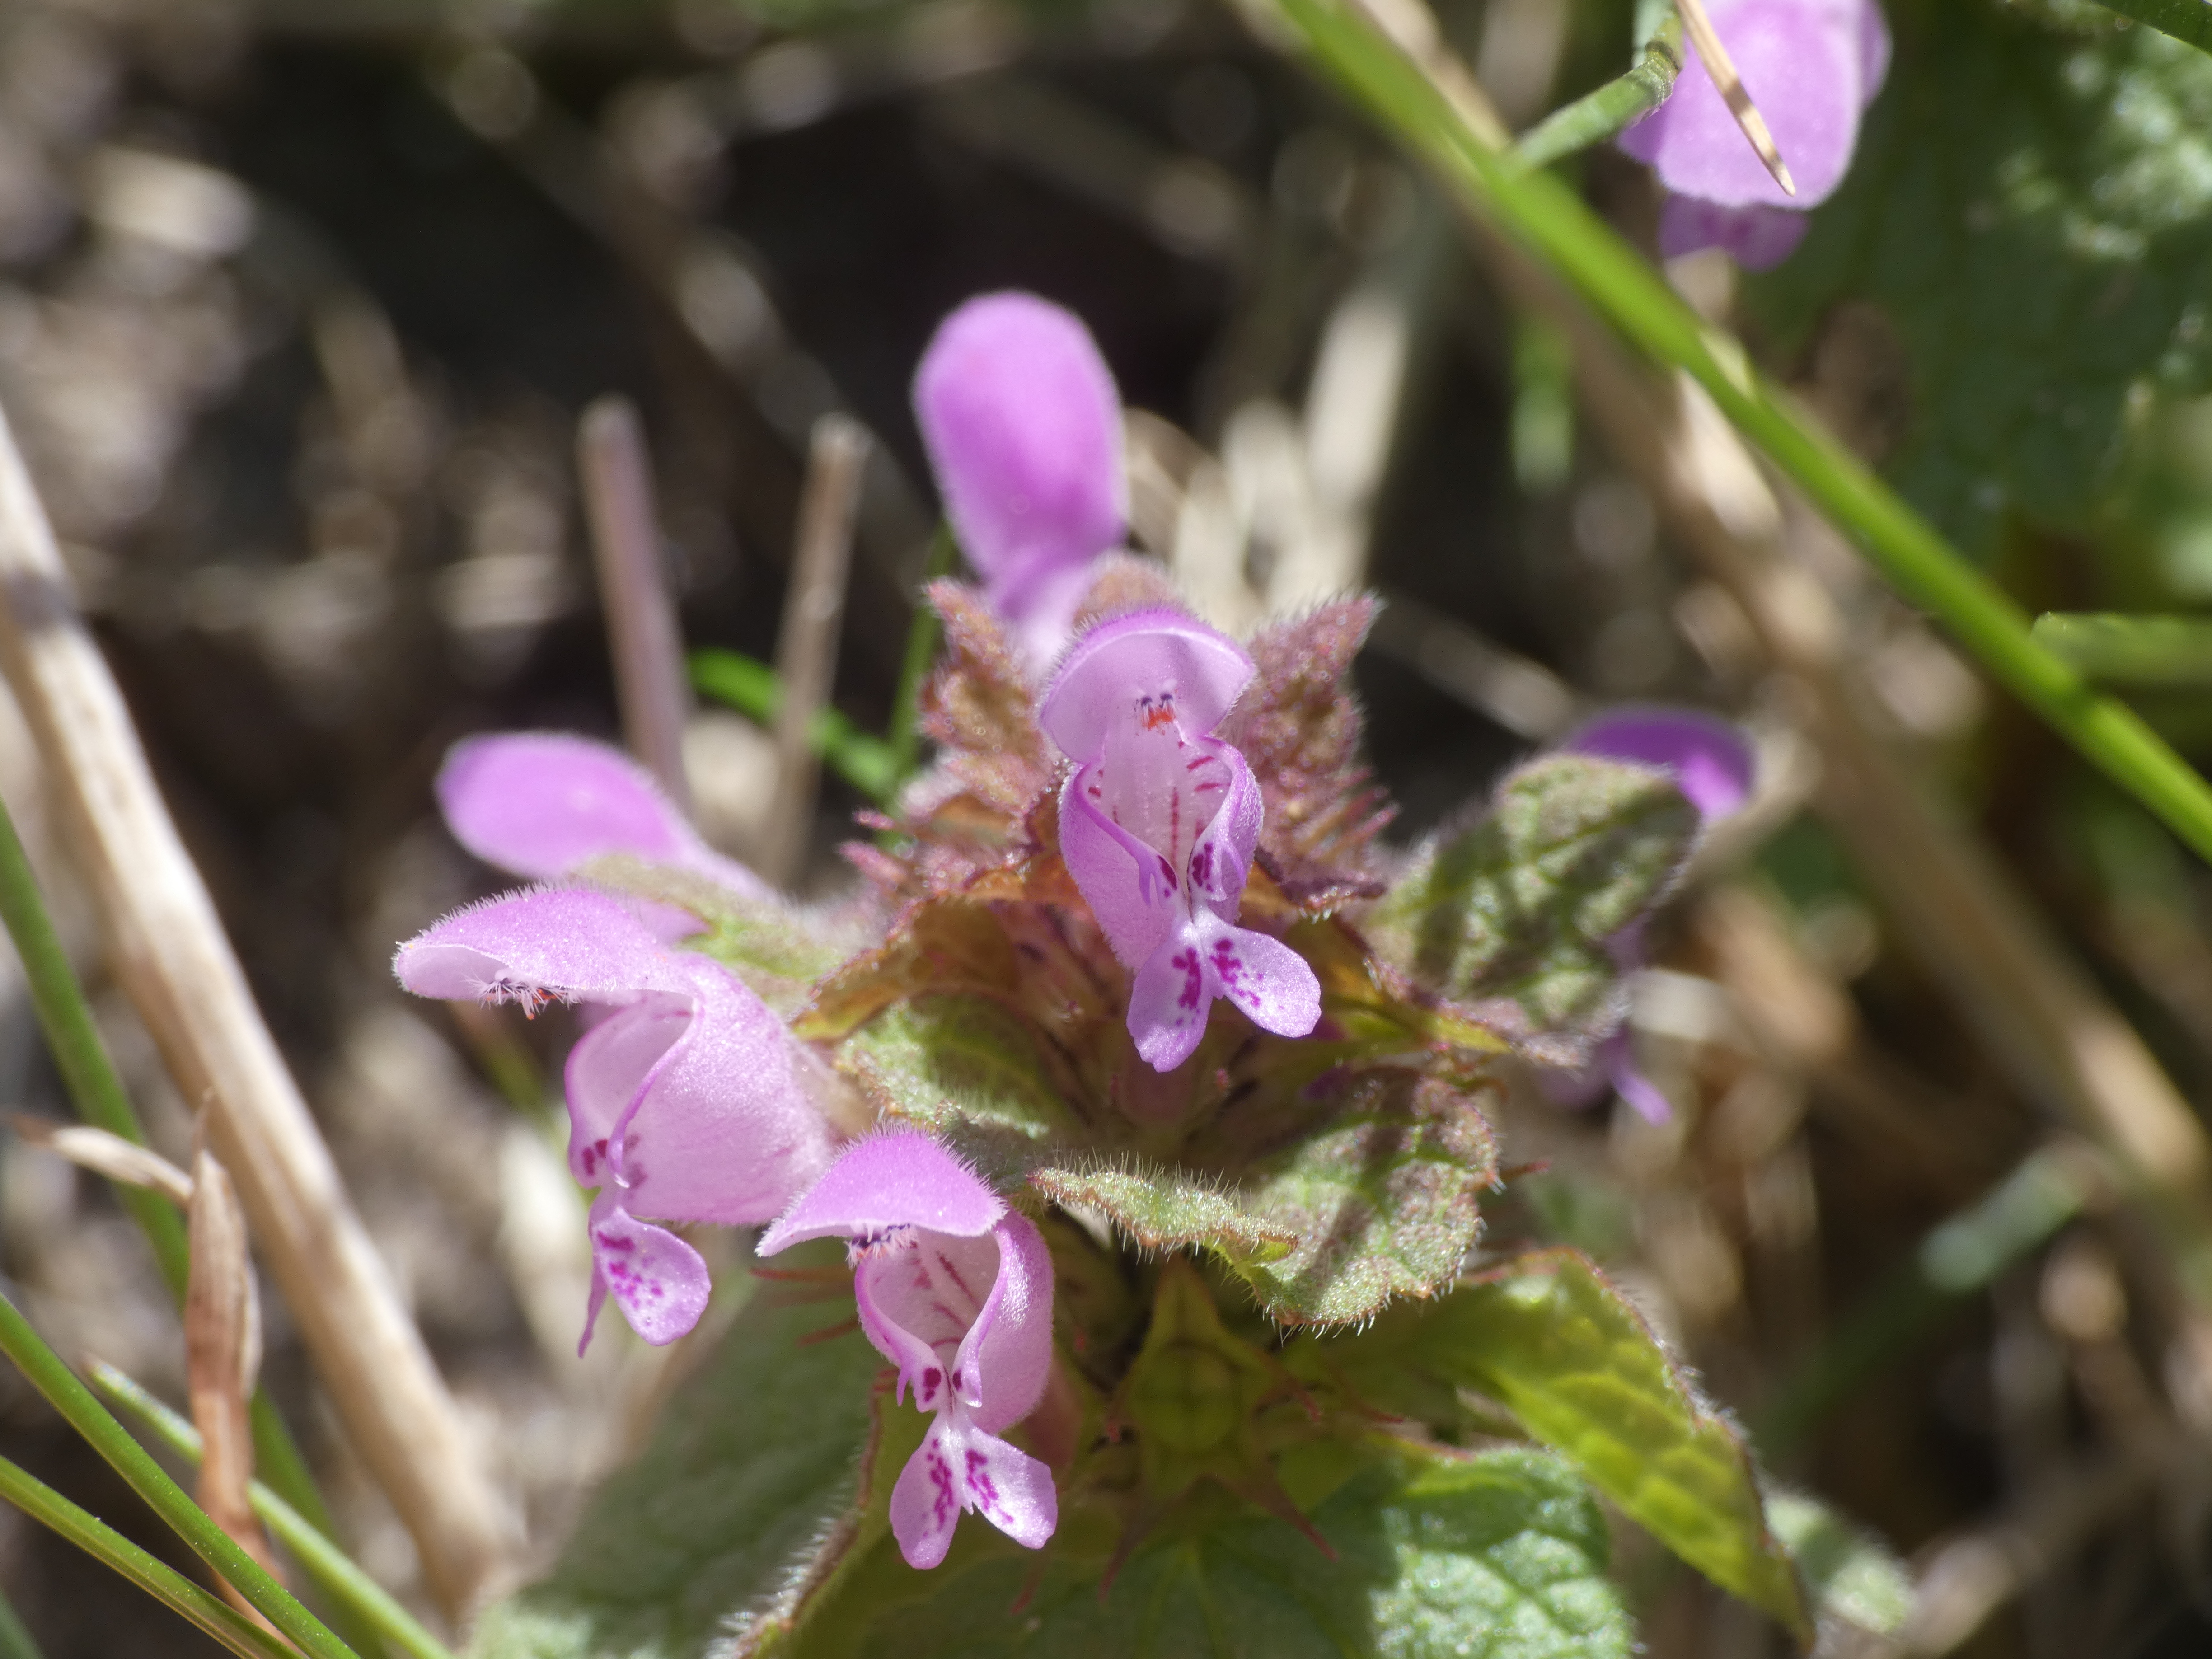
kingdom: Plantae
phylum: Tracheophyta
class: Magnoliopsida
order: Lamiales
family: Lamiaceae
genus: Lamium
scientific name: Lamium purpureum
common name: Rød tvetand
